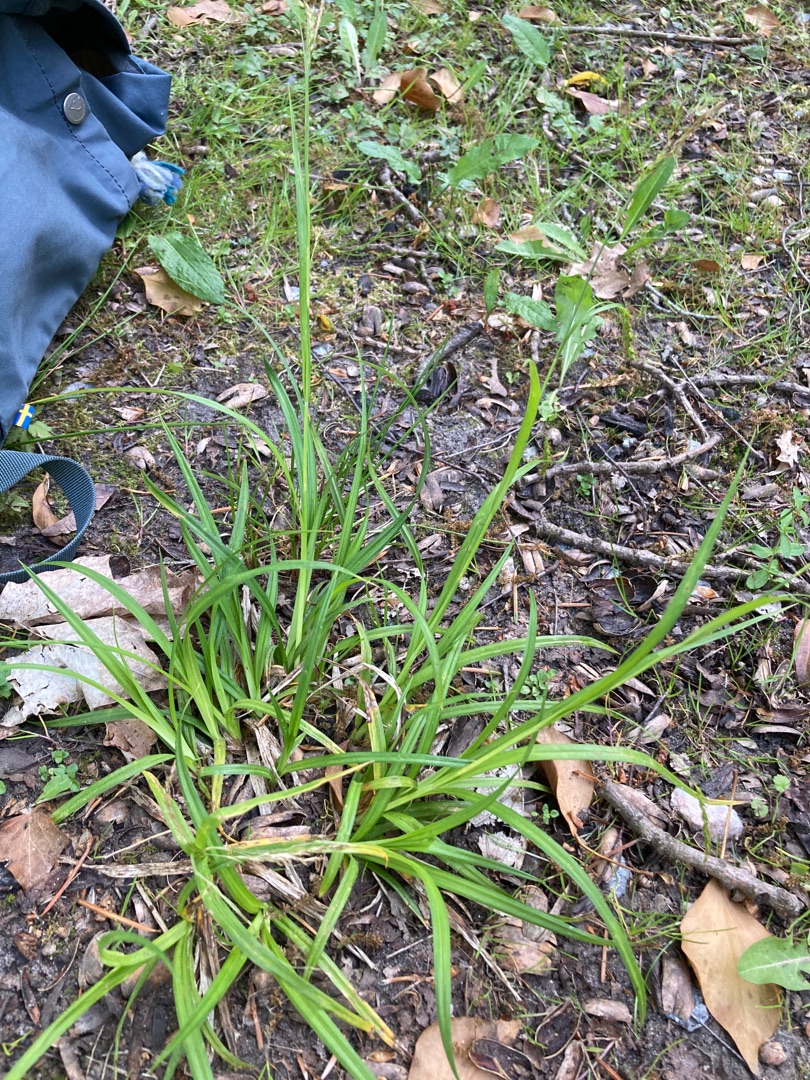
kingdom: Plantae
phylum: Tracheophyta
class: Liliopsida
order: Poales
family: Cyperaceae
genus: Carex
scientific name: Carex sylvatica
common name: Skov-star
